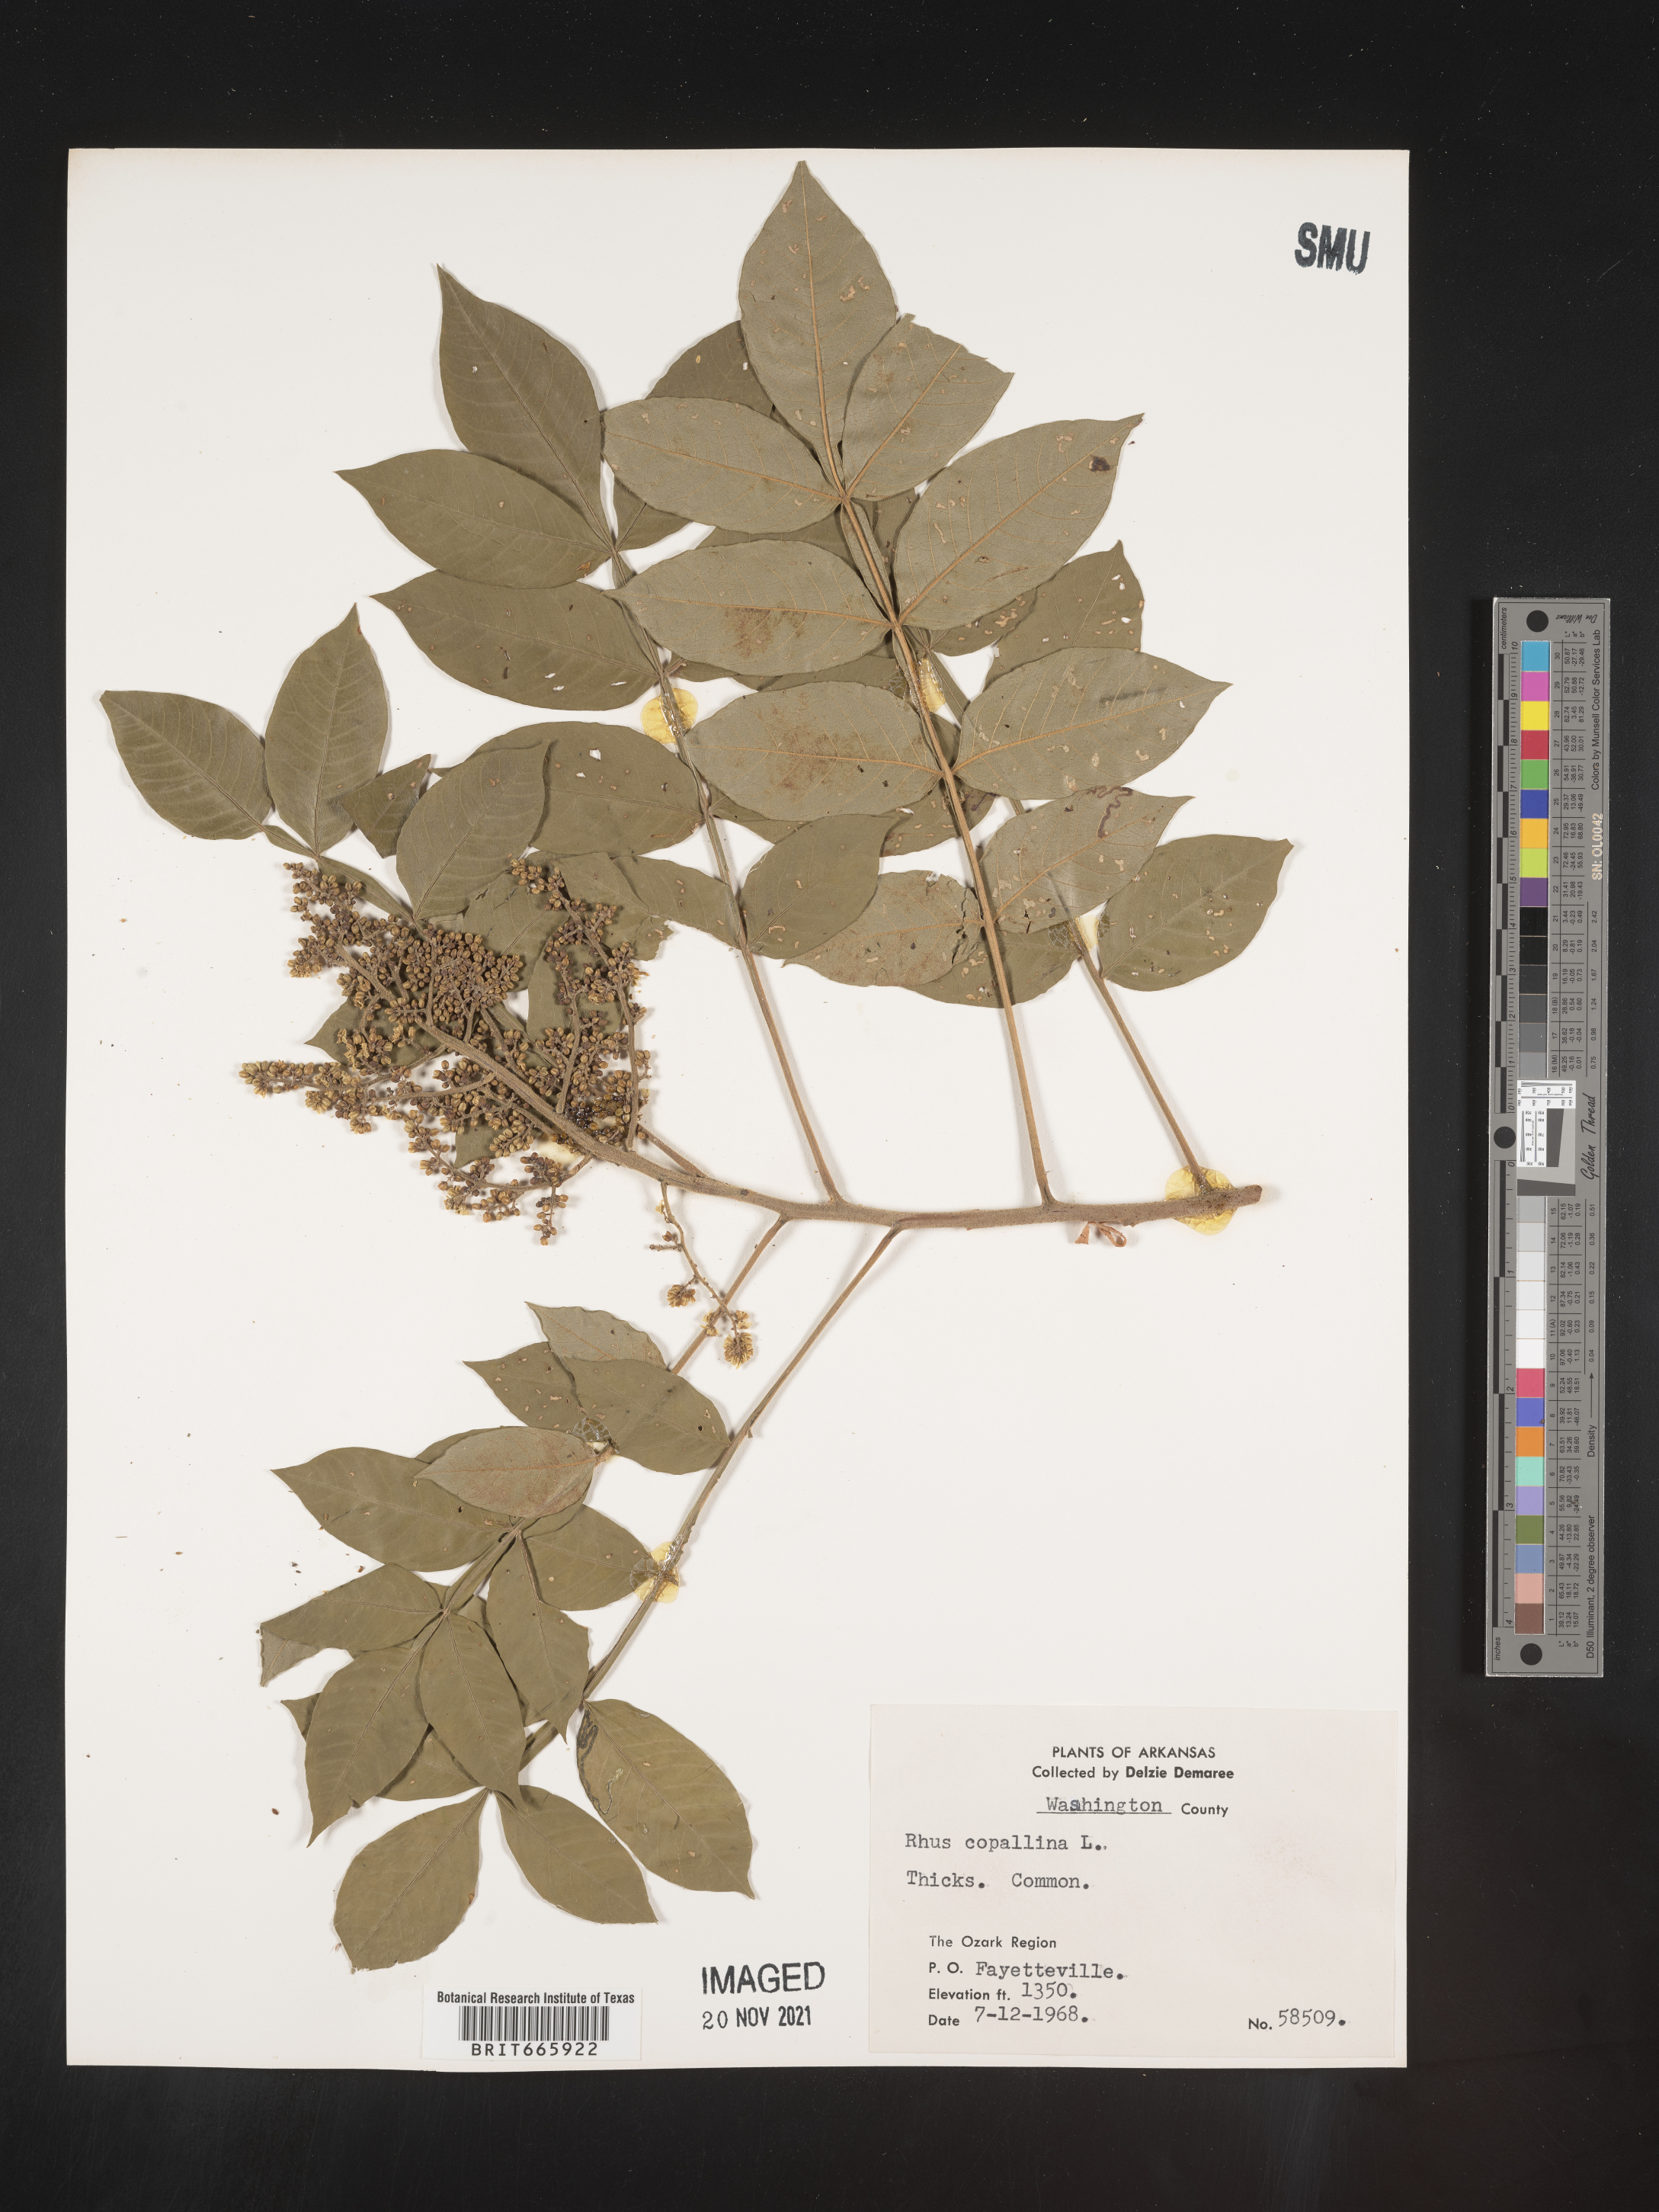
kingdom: Plantae
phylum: Tracheophyta
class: Magnoliopsida
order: Sapindales
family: Anacardiaceae
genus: Rhus
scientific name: Rhus copallina
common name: Shining sumac
